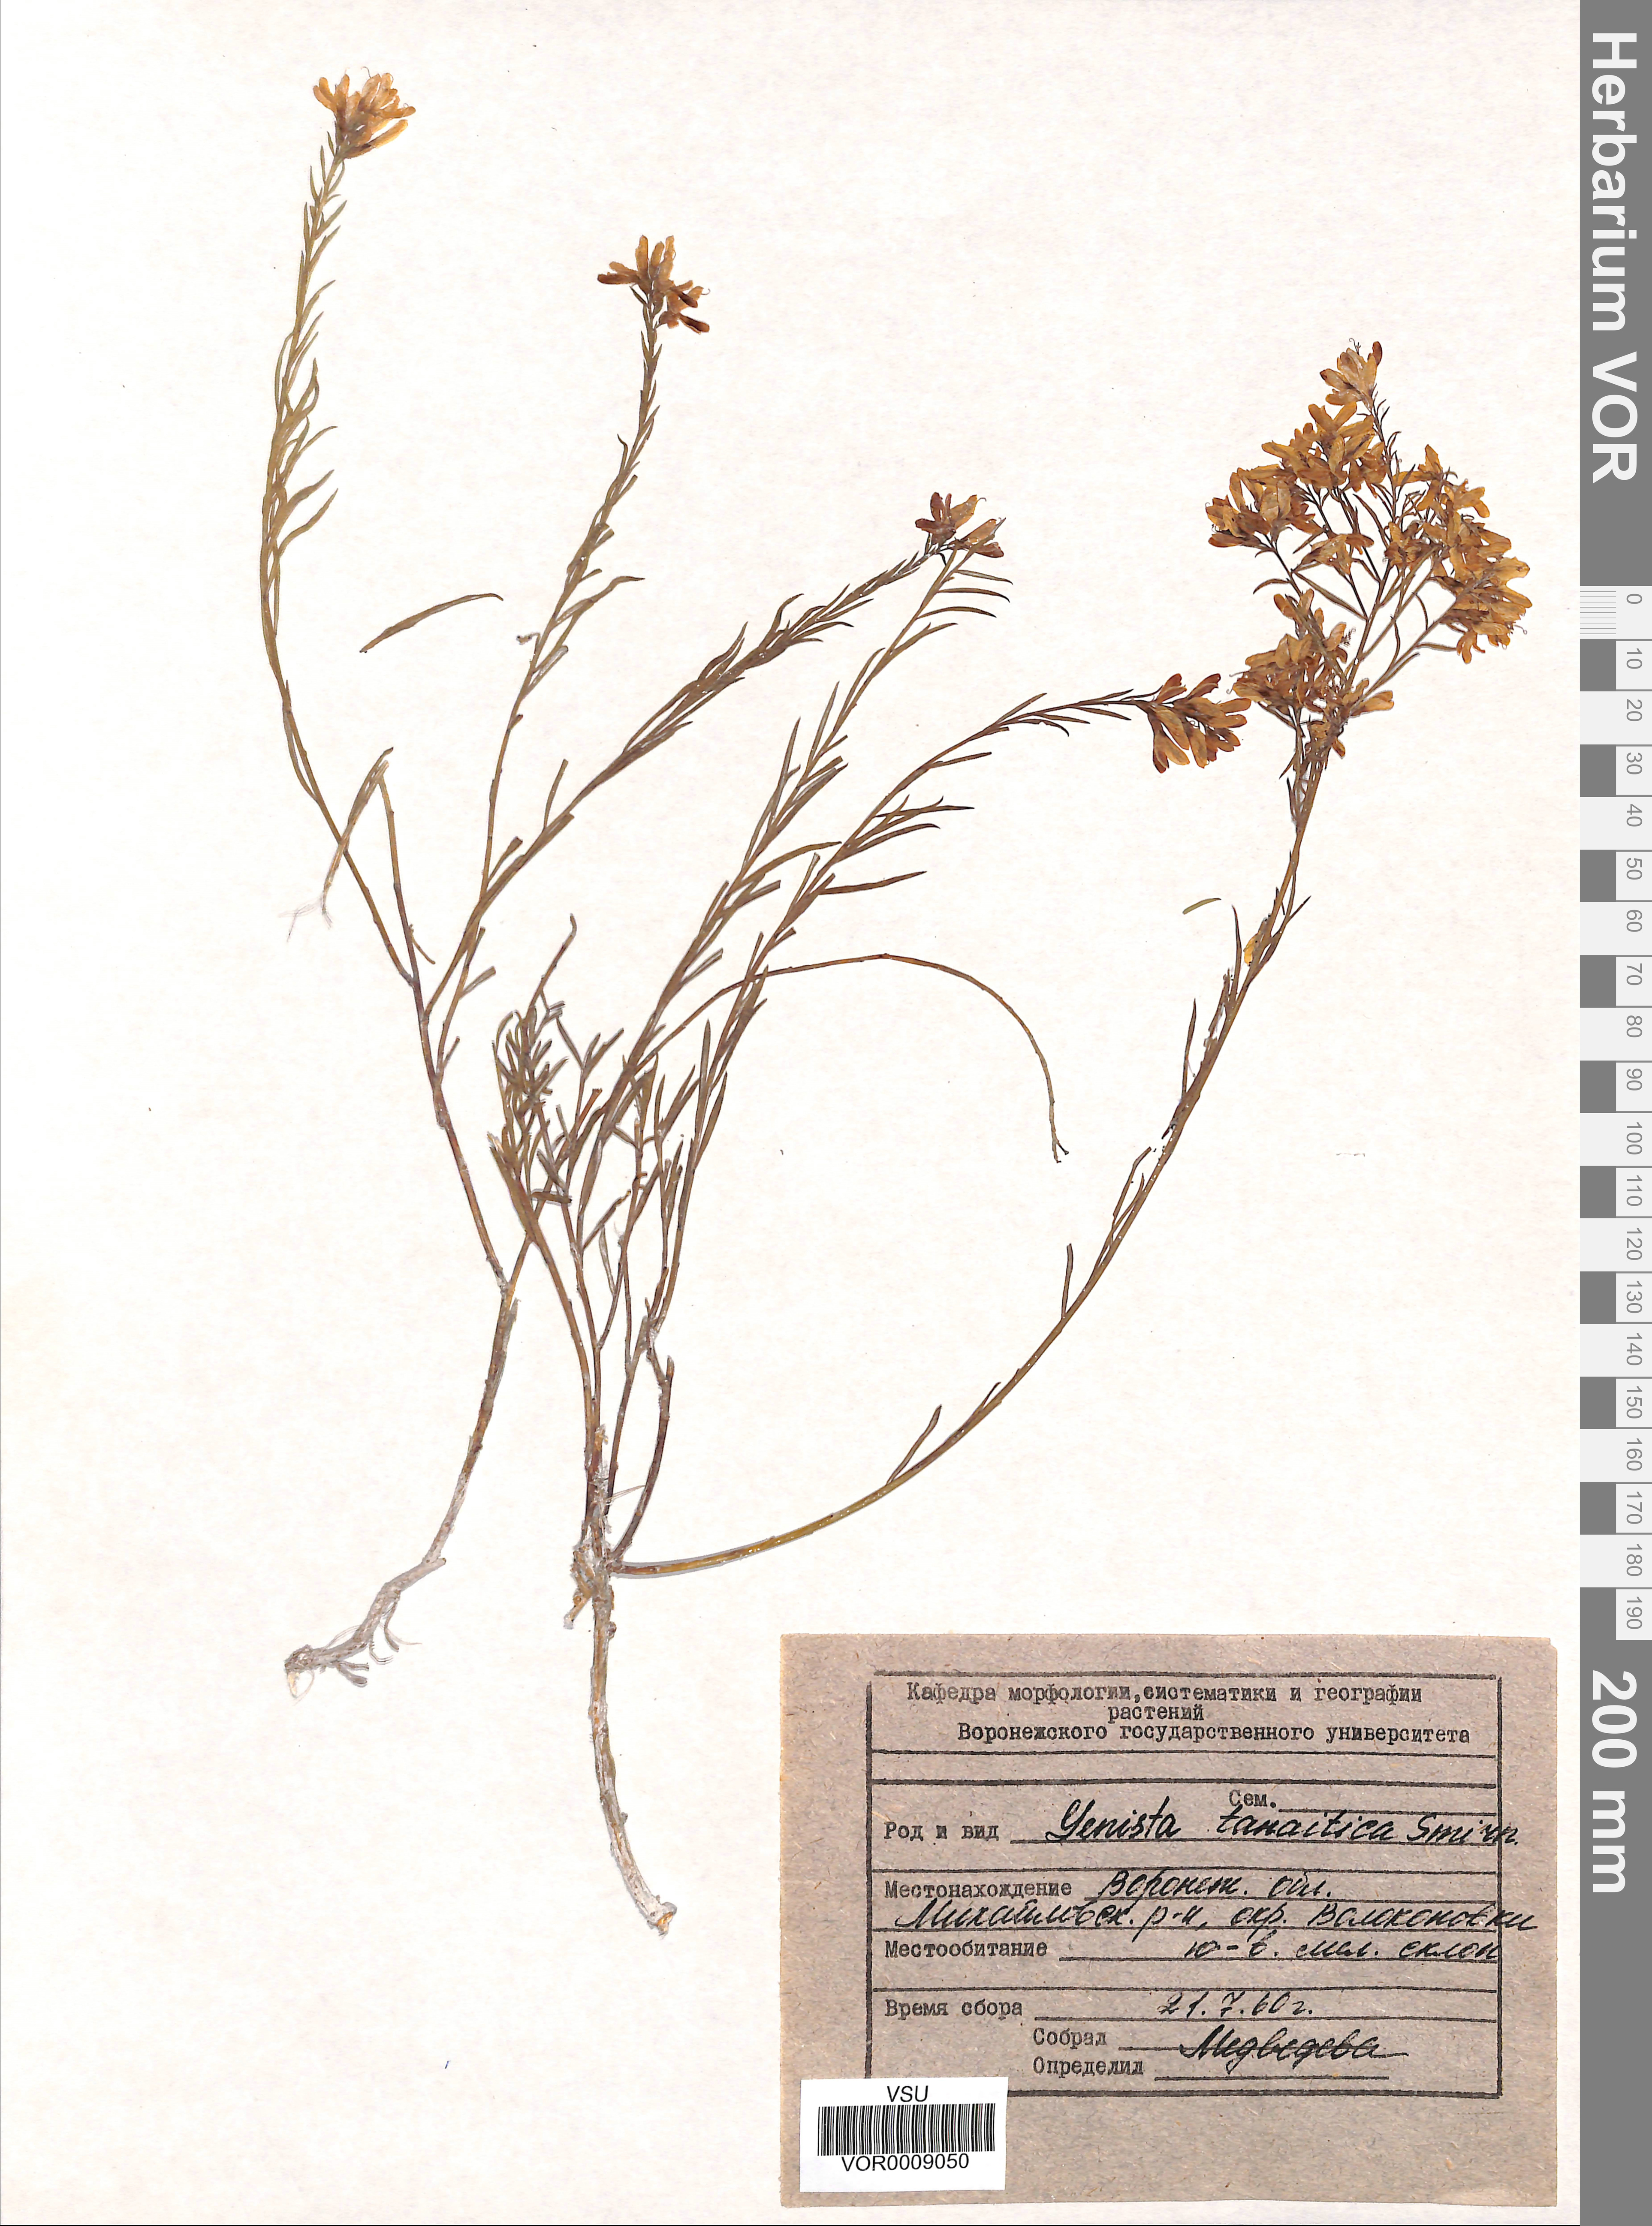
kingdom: Plantae
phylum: Tracheophyta
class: Magnoliopsida
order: Fabales
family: Fabaceae
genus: Genista
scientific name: Genista tinctoria
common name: Dyer's greenweed
